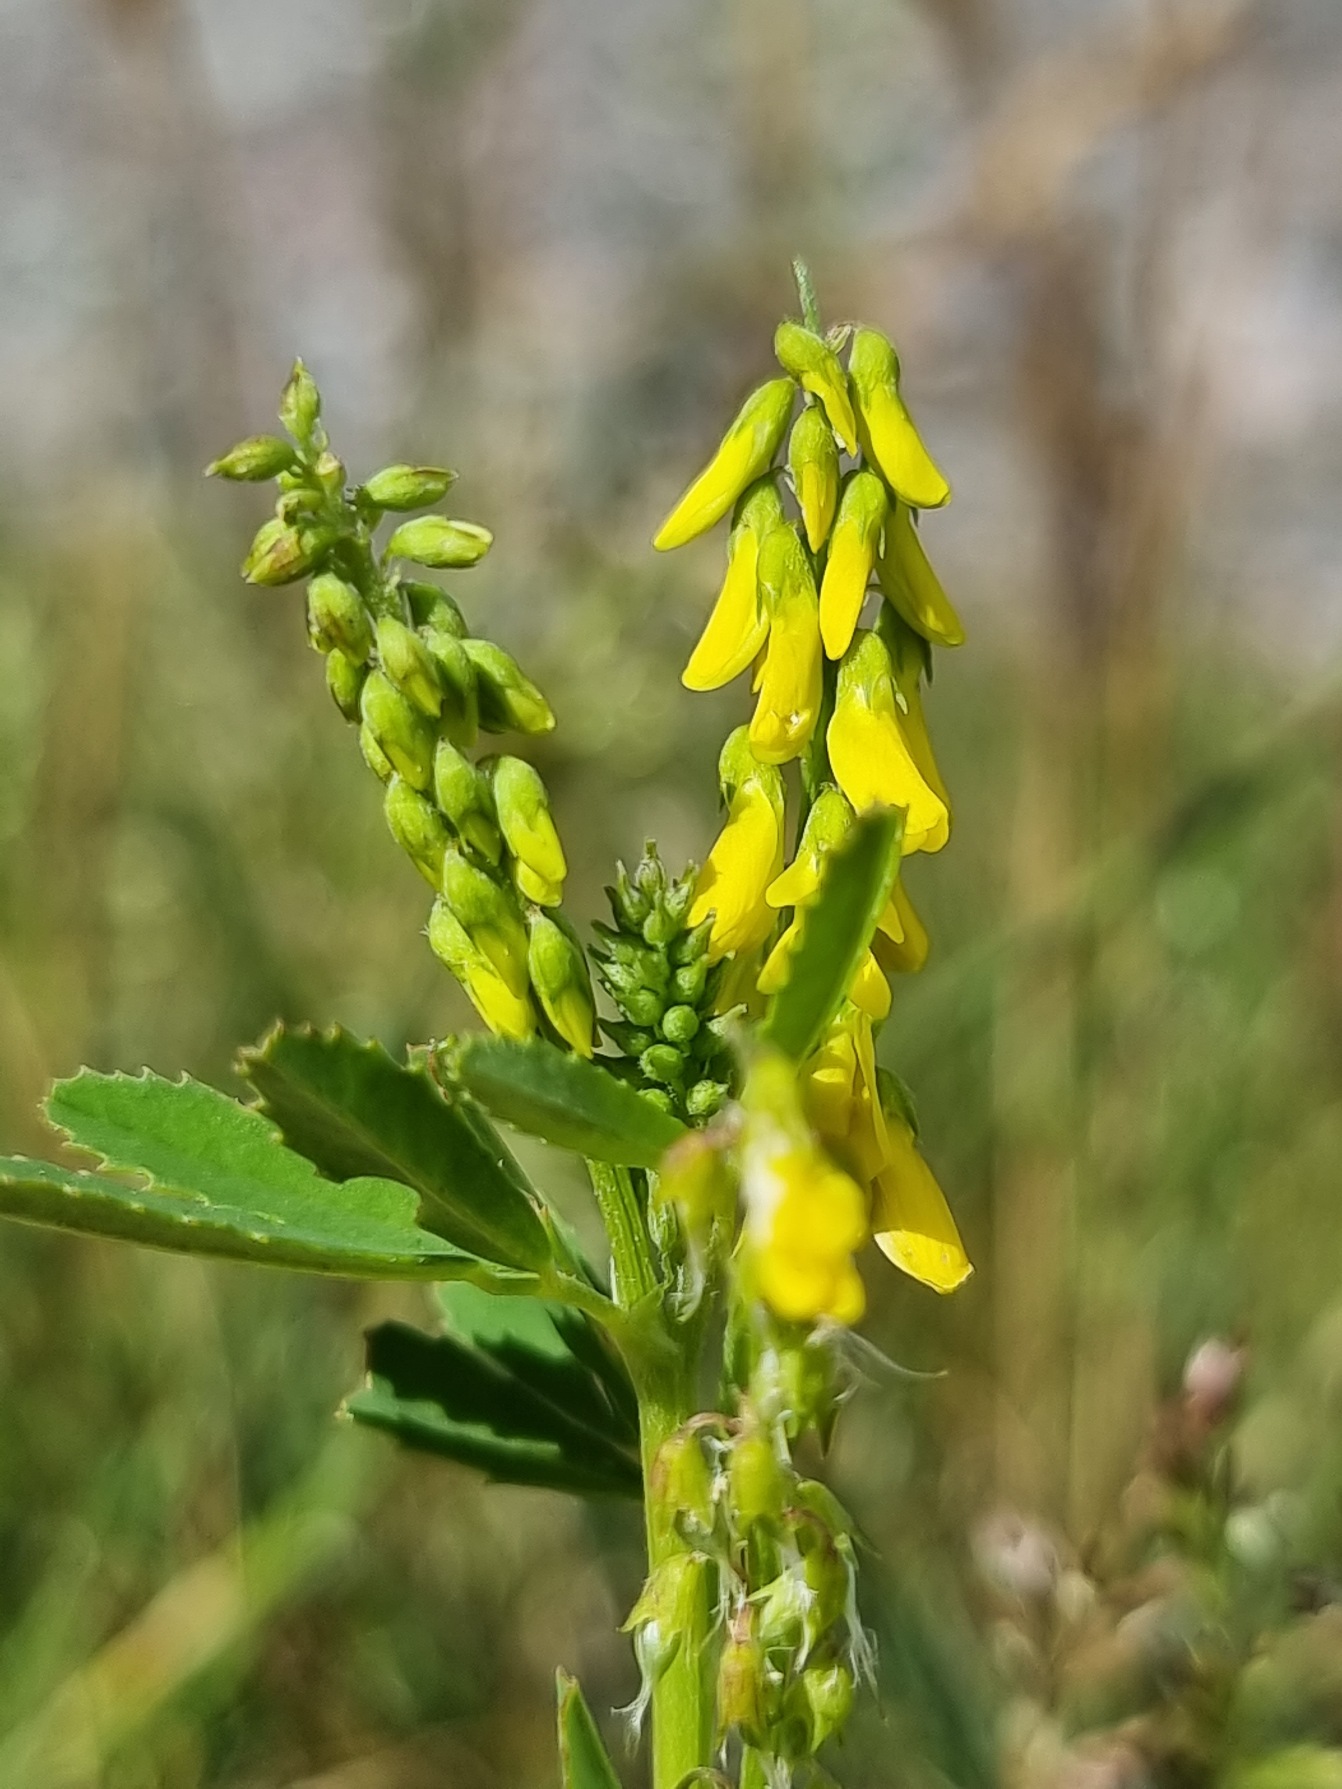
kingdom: Plantae
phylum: Tracheophyta
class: Magnoliopsida
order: Fabales
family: Fabaceae
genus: Melilotus
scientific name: Melilotus
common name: Stenkløverslægten
